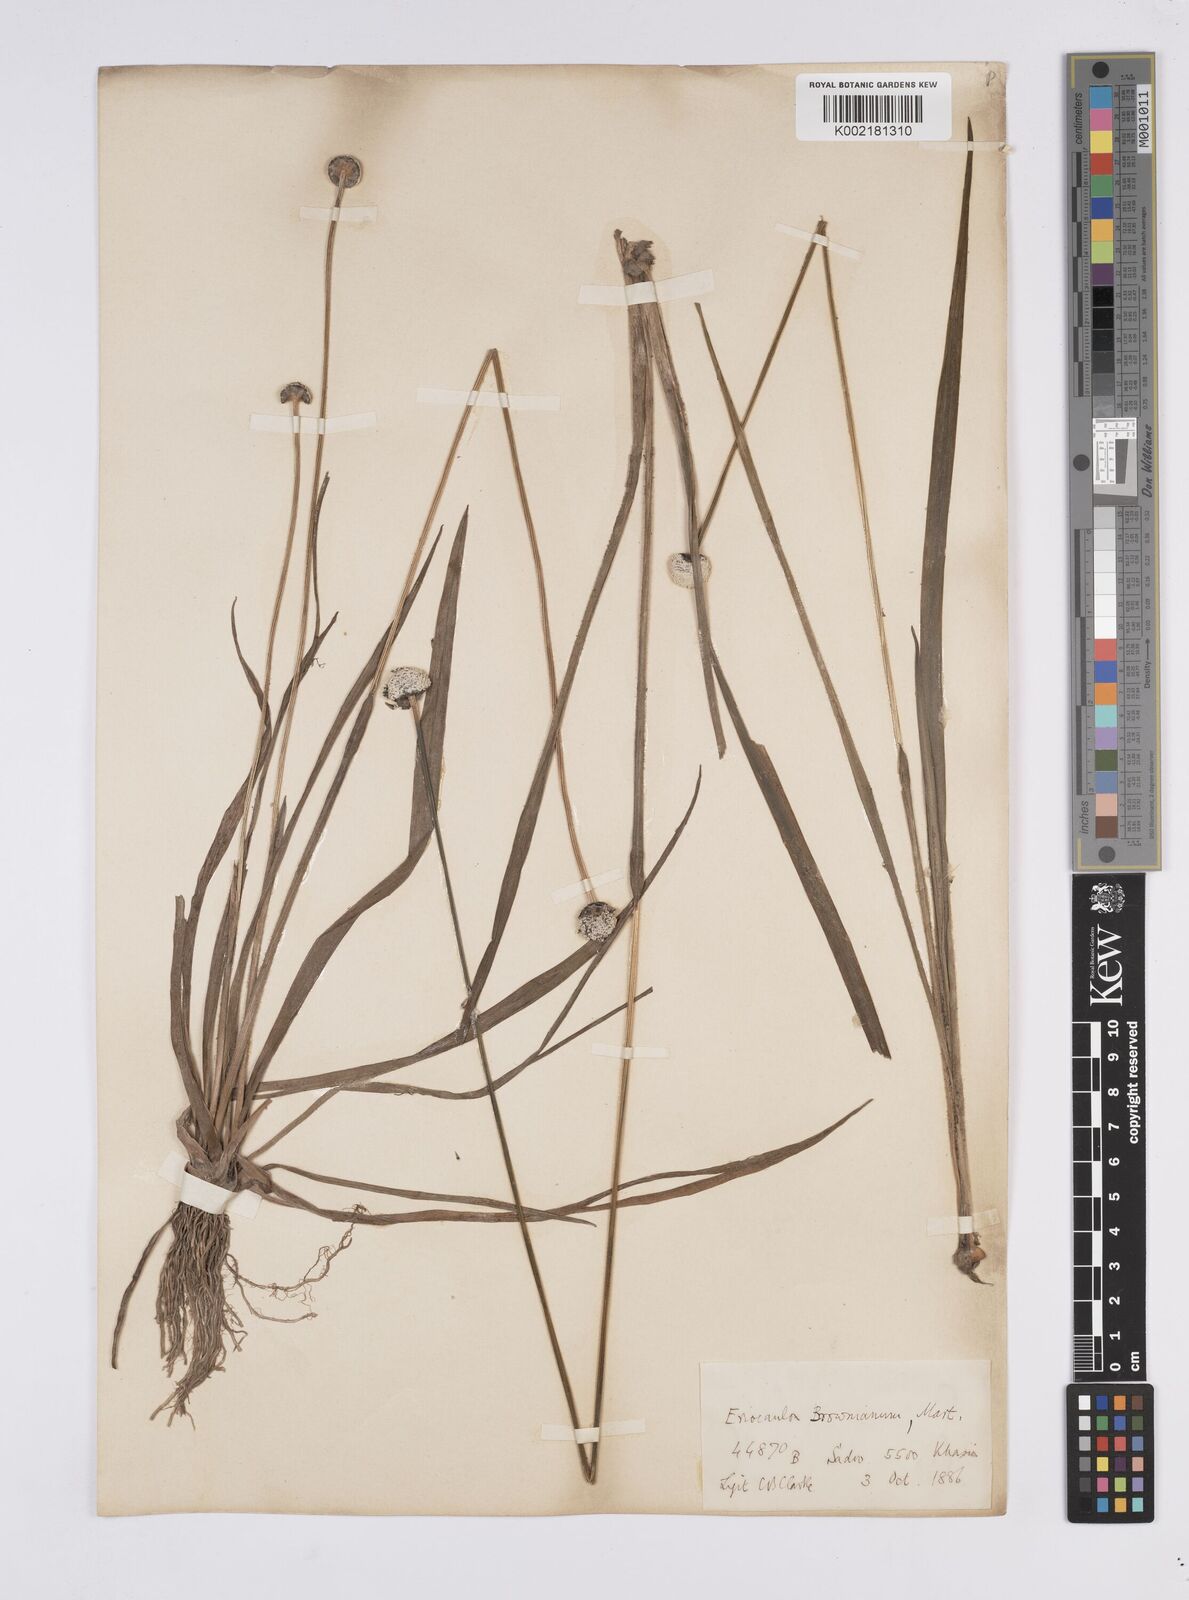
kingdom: Plantae
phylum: Tracheophyta
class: Liliopsida
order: Poales
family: Eriocaulaceae
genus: Eriocaulon
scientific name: Eriocaulon brownianum
